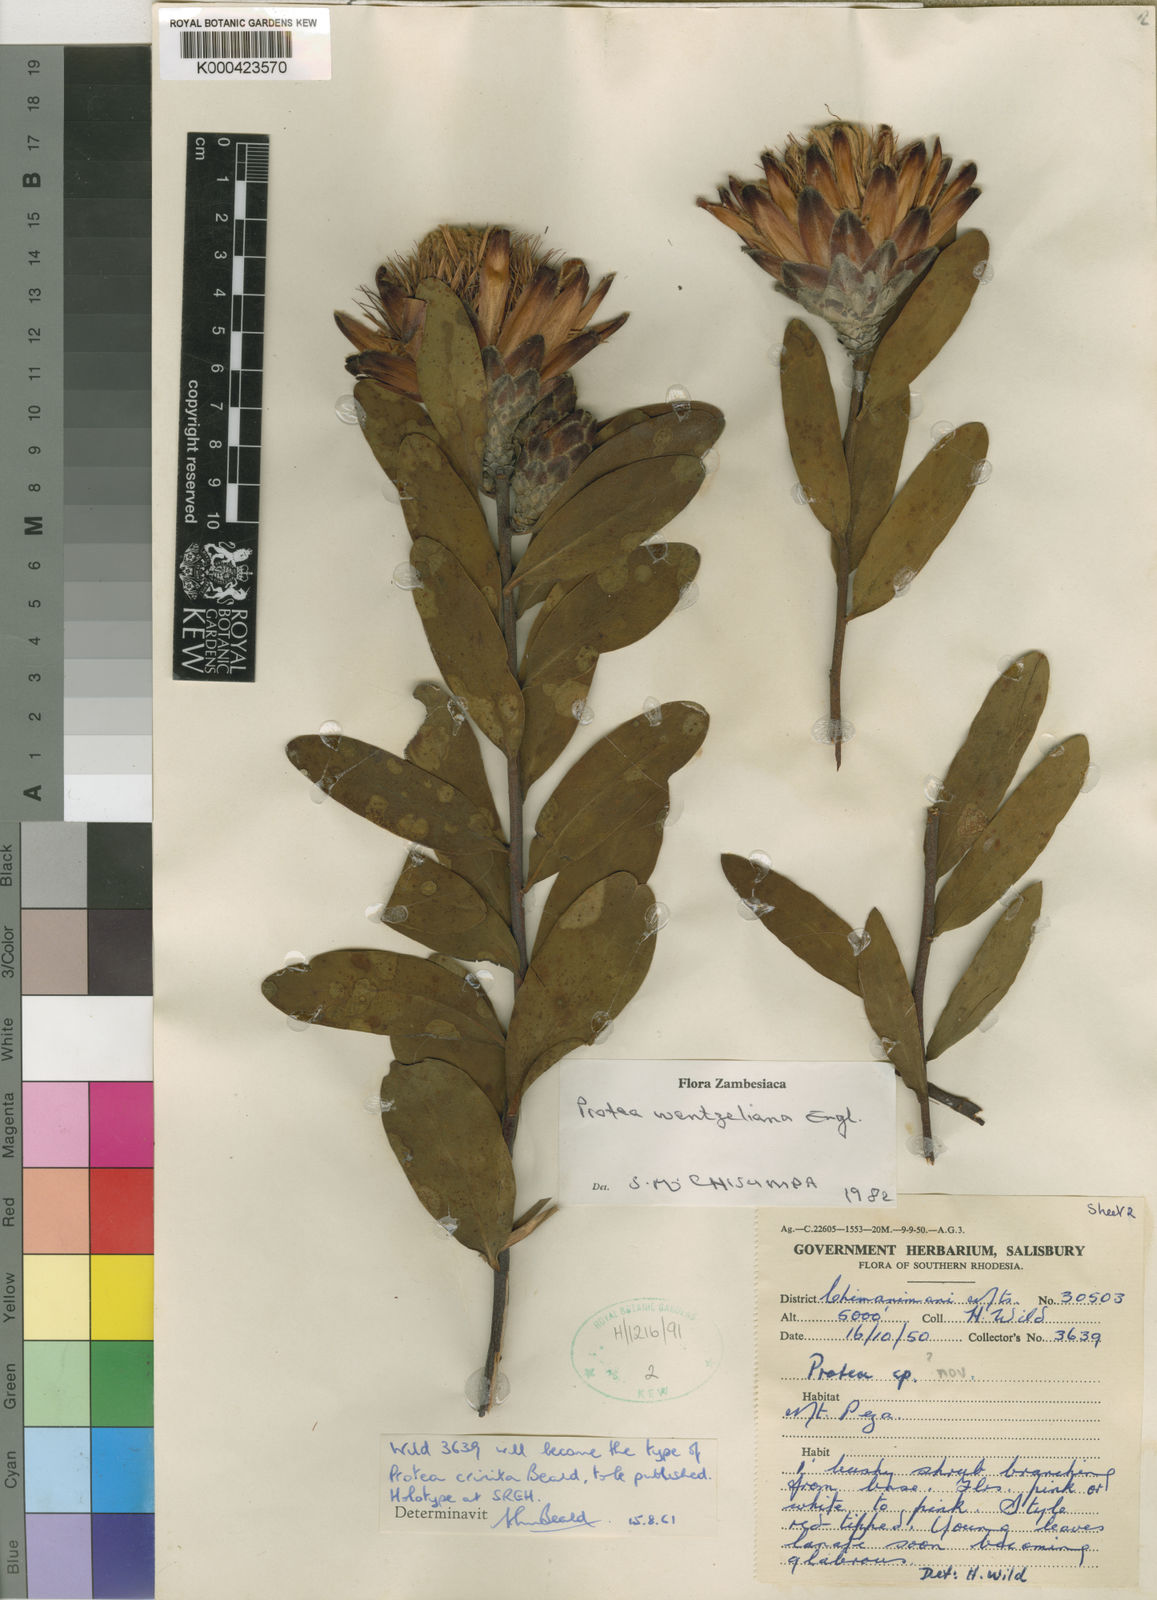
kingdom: Plantae
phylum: Tracheophyta
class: Magnoliopsida
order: Proteales
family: Proteaceae
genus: Protea
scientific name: Protea wentzeliana
